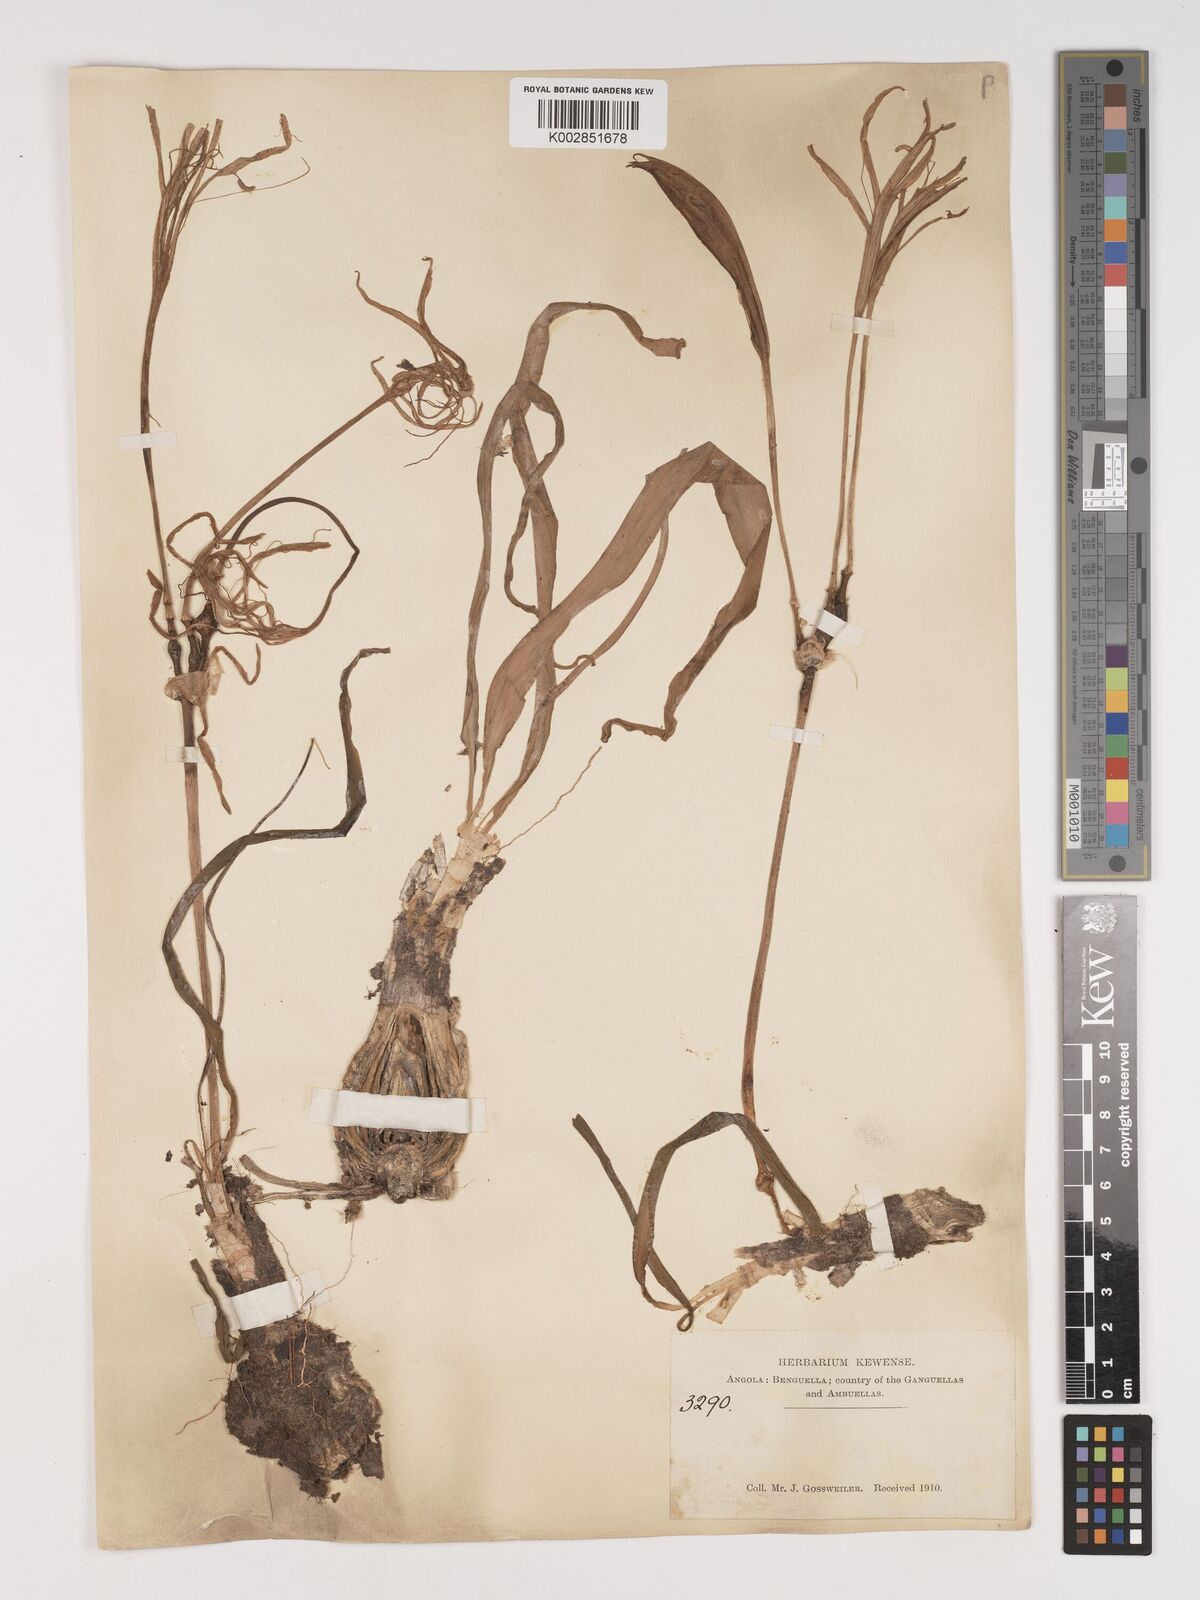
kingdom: Plantae
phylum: Tracheophyta
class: Liliopsida
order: Asparagales
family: Amaryllidaceae
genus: Crinum
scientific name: Crinum
